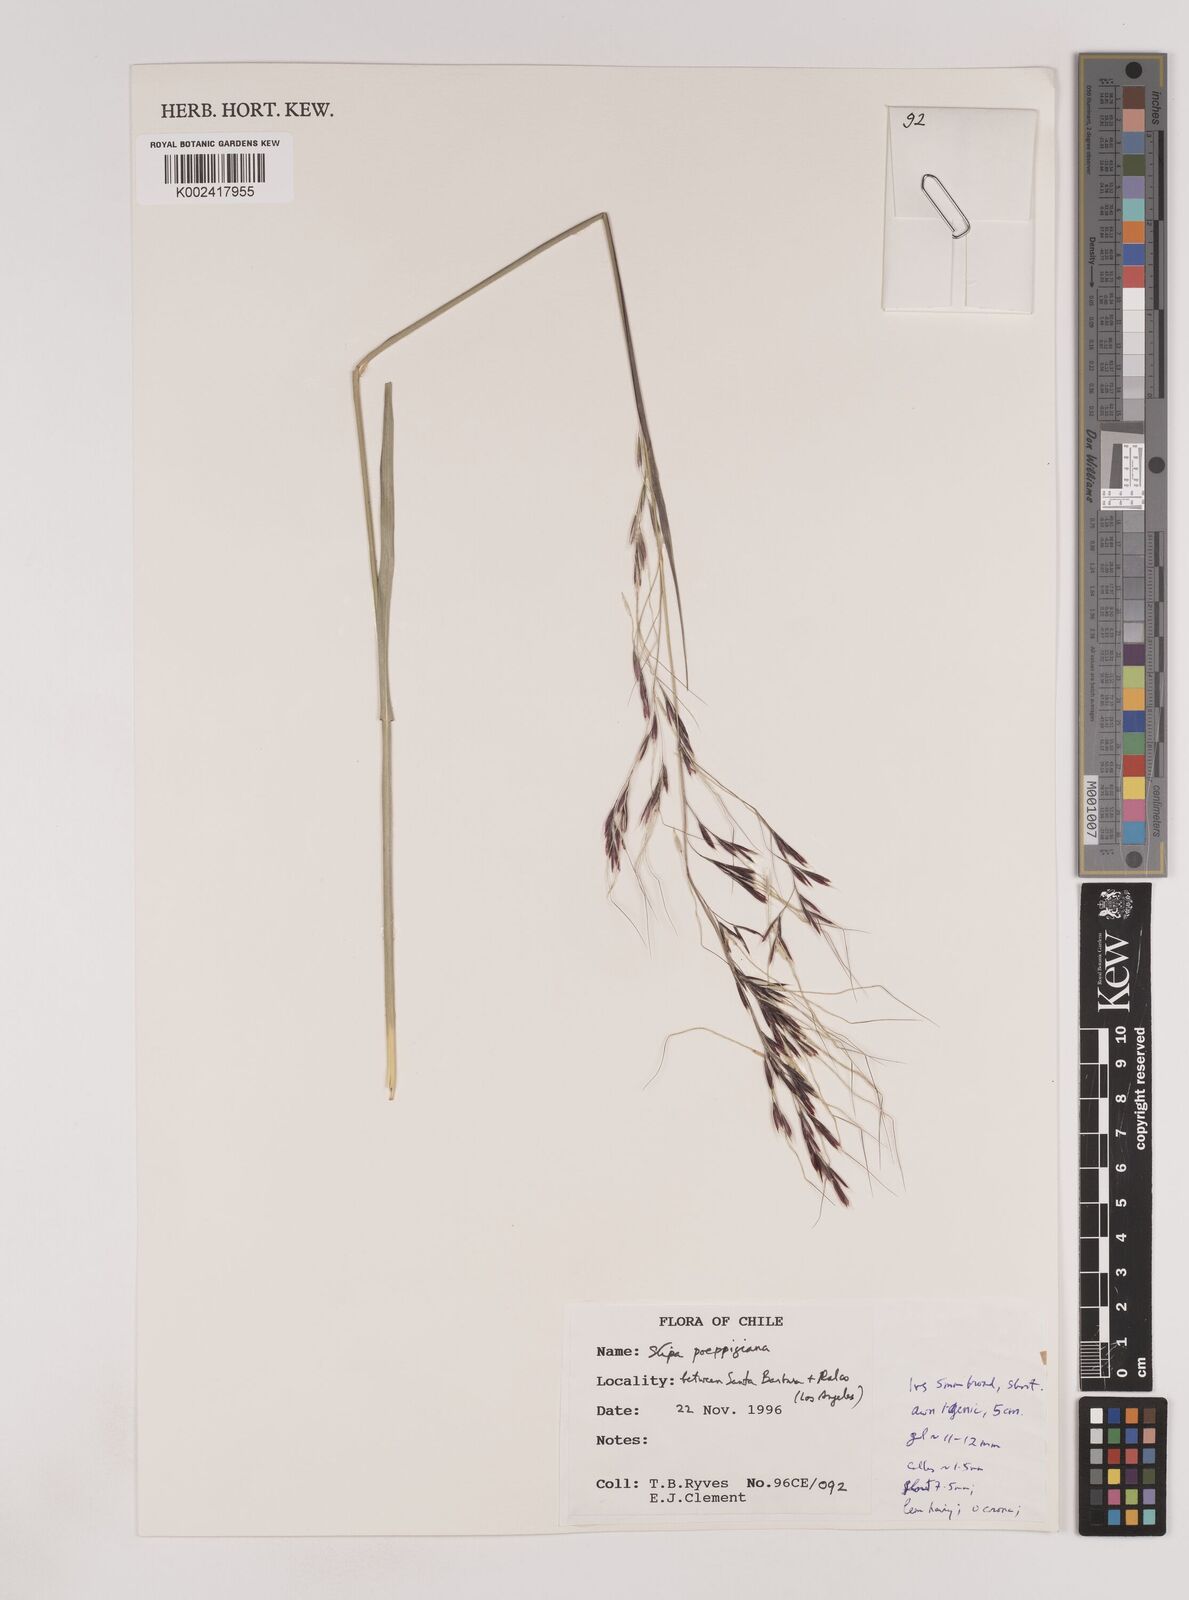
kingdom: Plantae
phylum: Tracheophyta
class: Liliopsida
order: Poales
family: Poaceae
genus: Nassella
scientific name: Nassella poeppigiana
